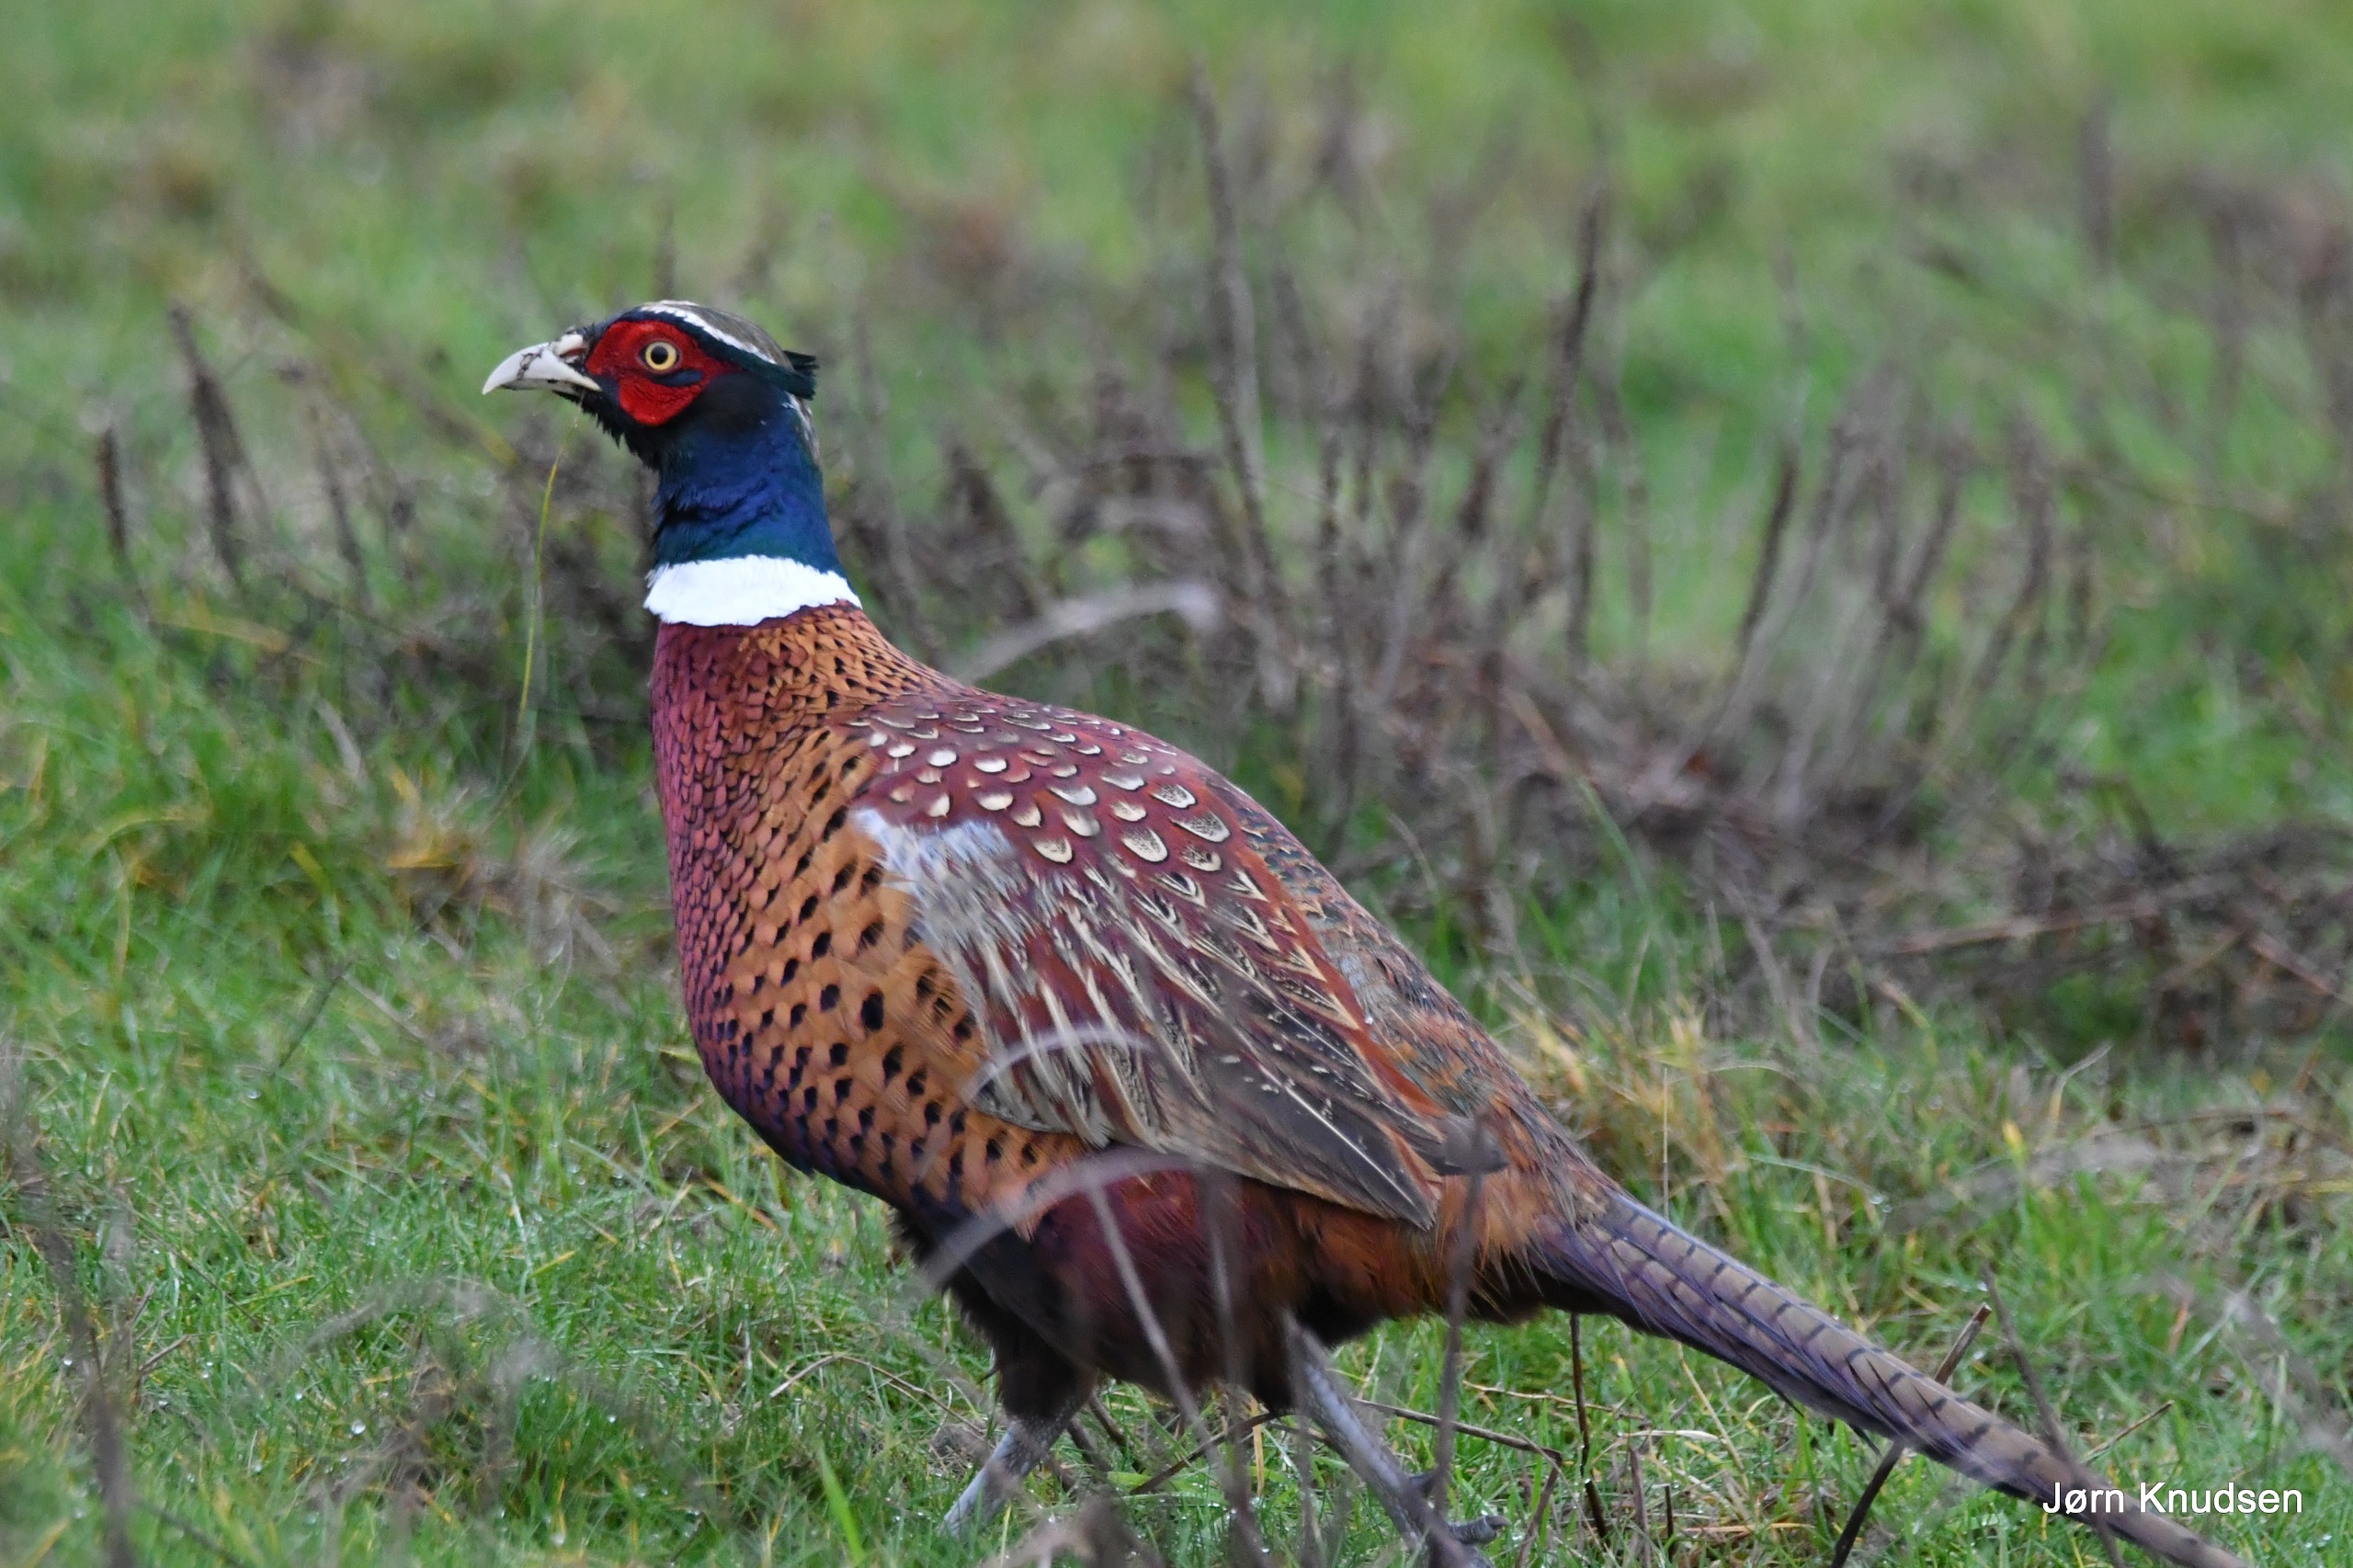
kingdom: Animalia
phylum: Chordata
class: Aves
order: Galliformes
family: Phasianidae
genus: Phasianus
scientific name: Phasianus colchicus
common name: Fasan
